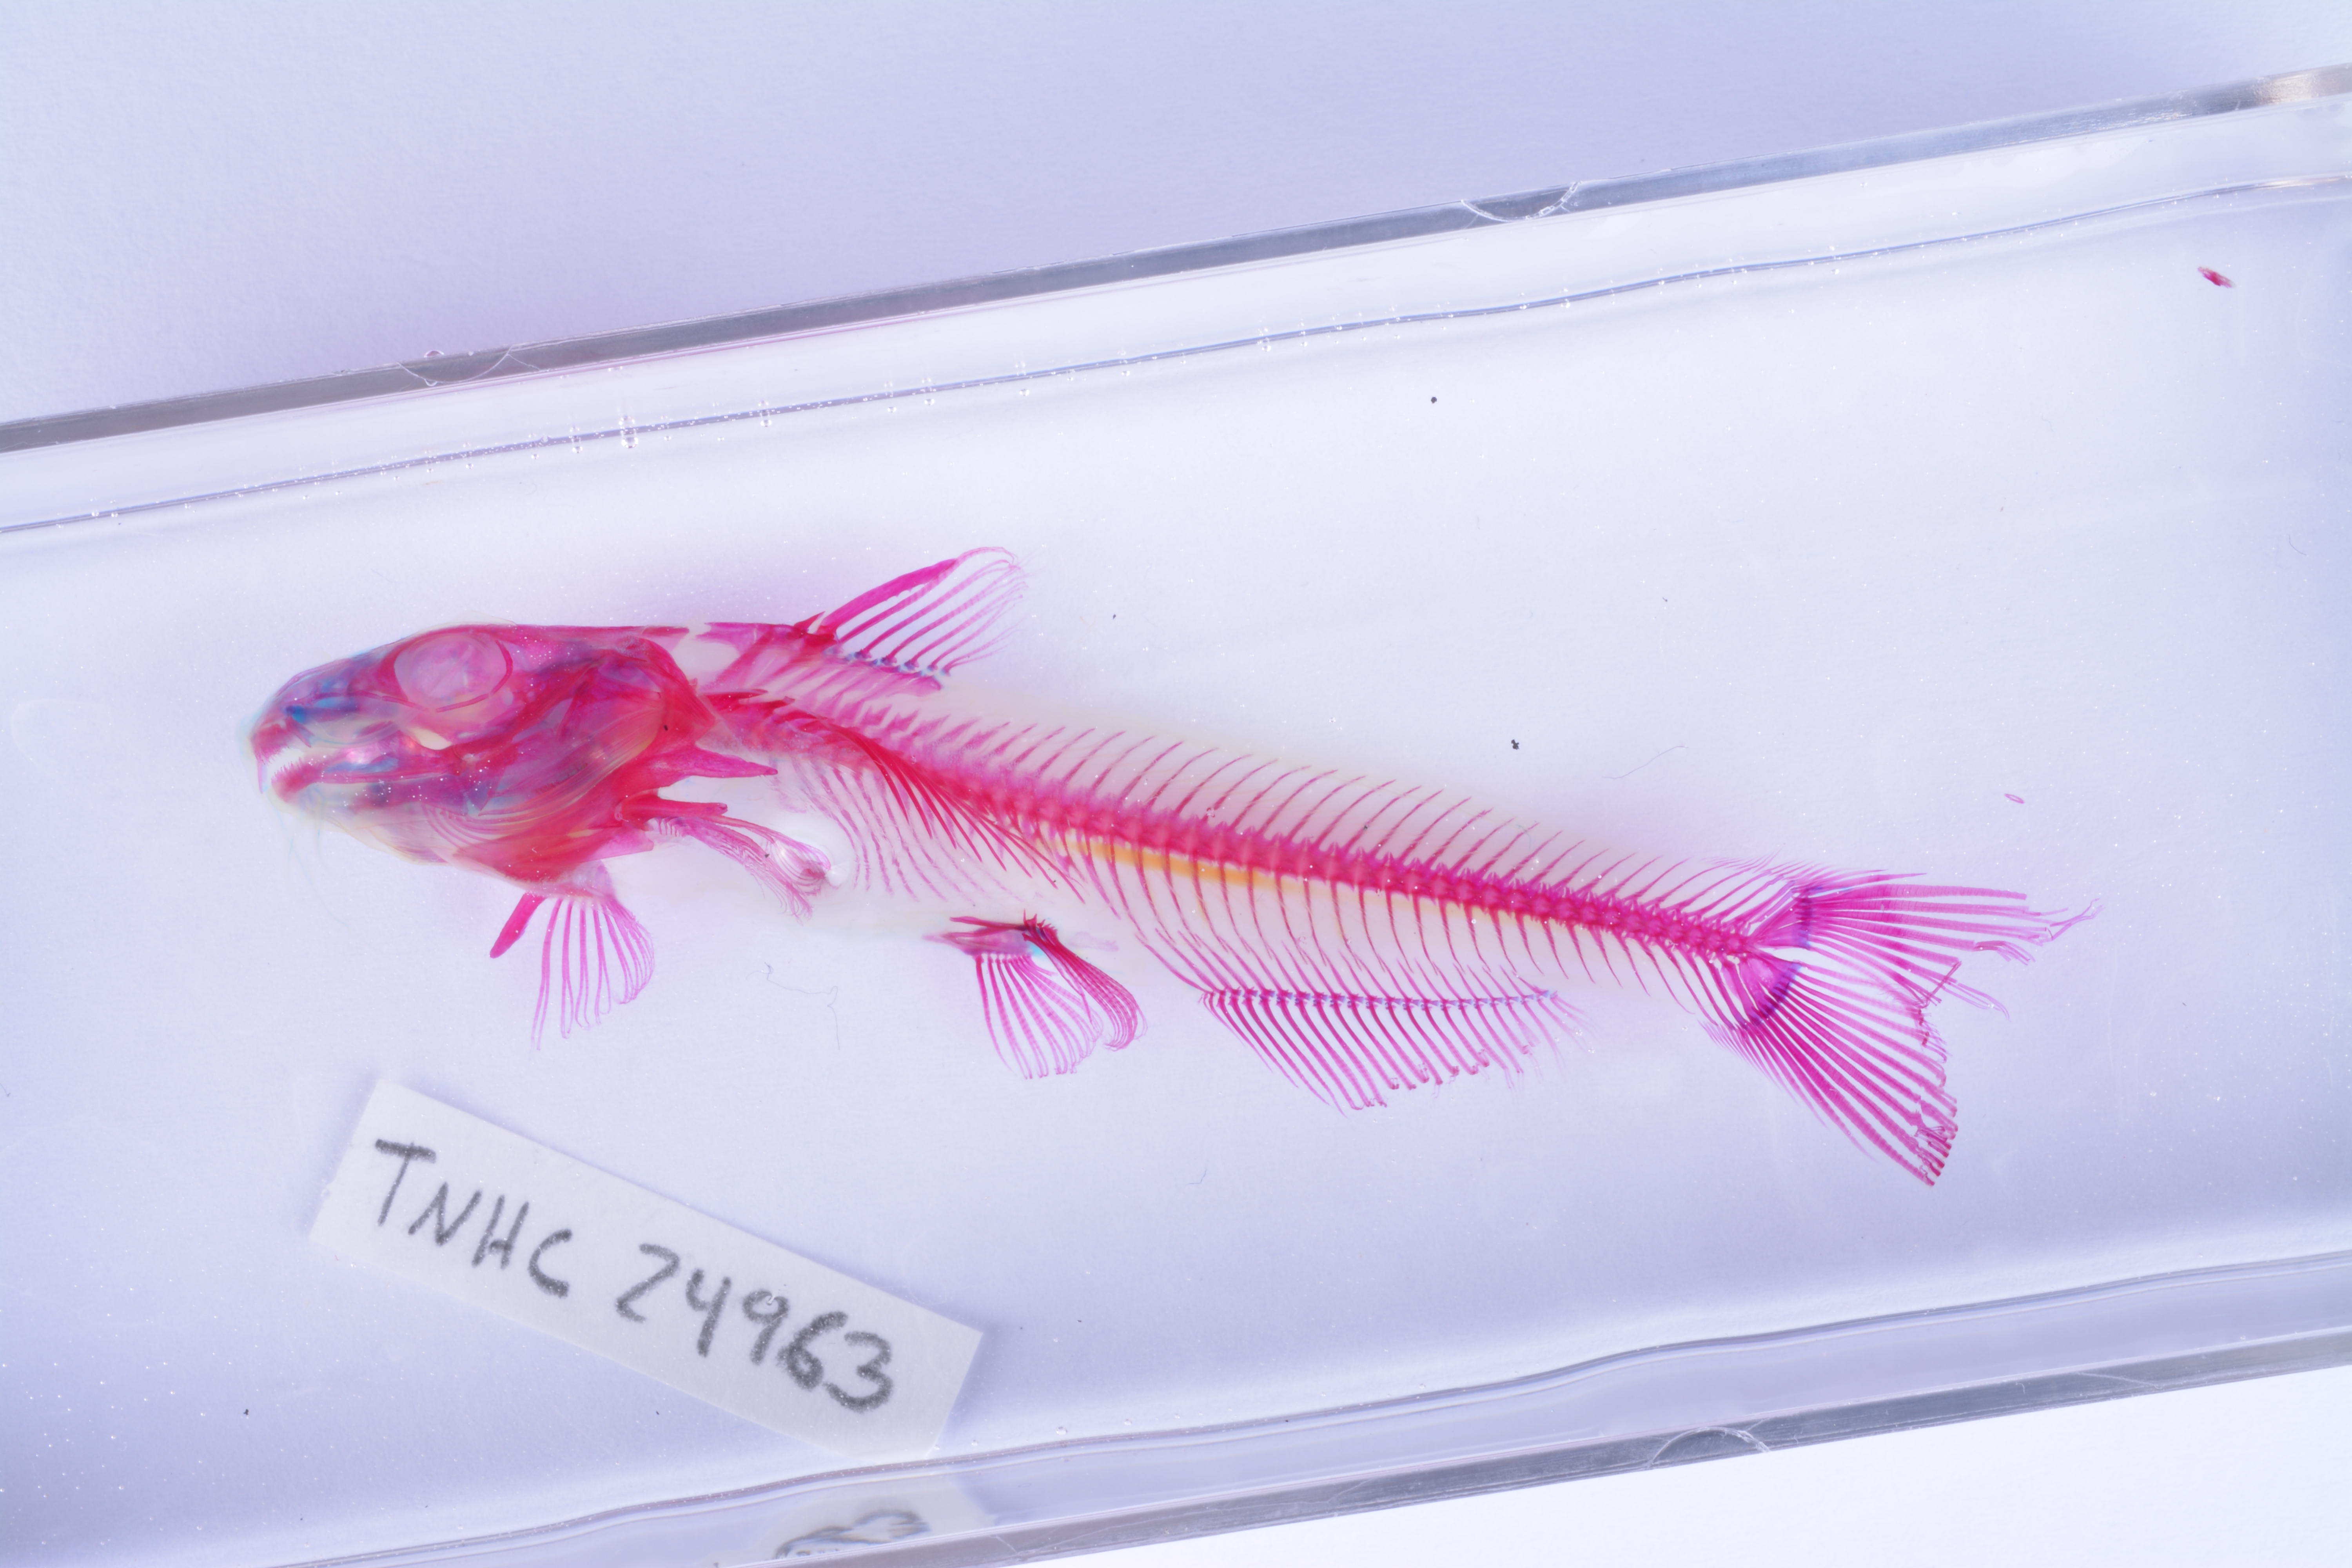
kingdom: Animalia
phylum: Chordata
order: Siluriformes
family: Ictaluridae
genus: Ictalurus
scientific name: Ictalurus
